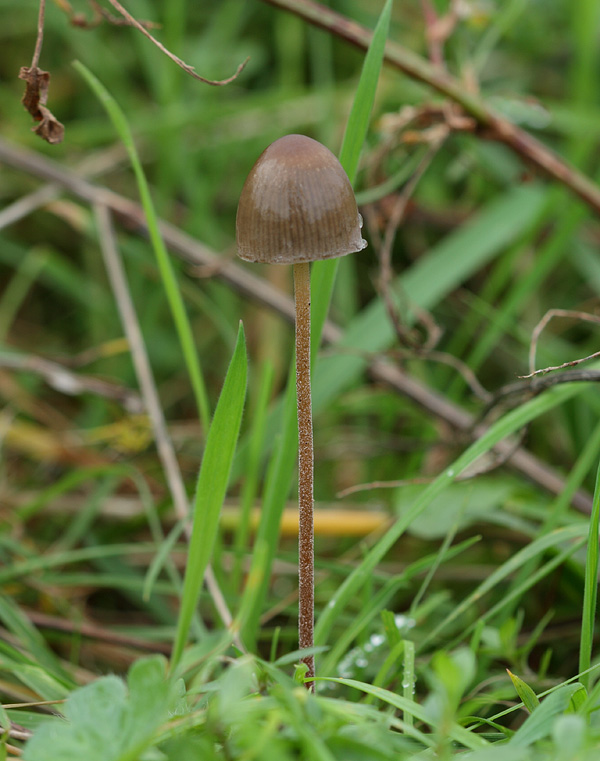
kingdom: Fungi
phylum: Basidiomycota
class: Agaricomycetes
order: Agaricales
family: Bolbitiaceae
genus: Panaeolus
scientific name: Panaeolus papilionaceus
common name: Petticoat mottlegill
